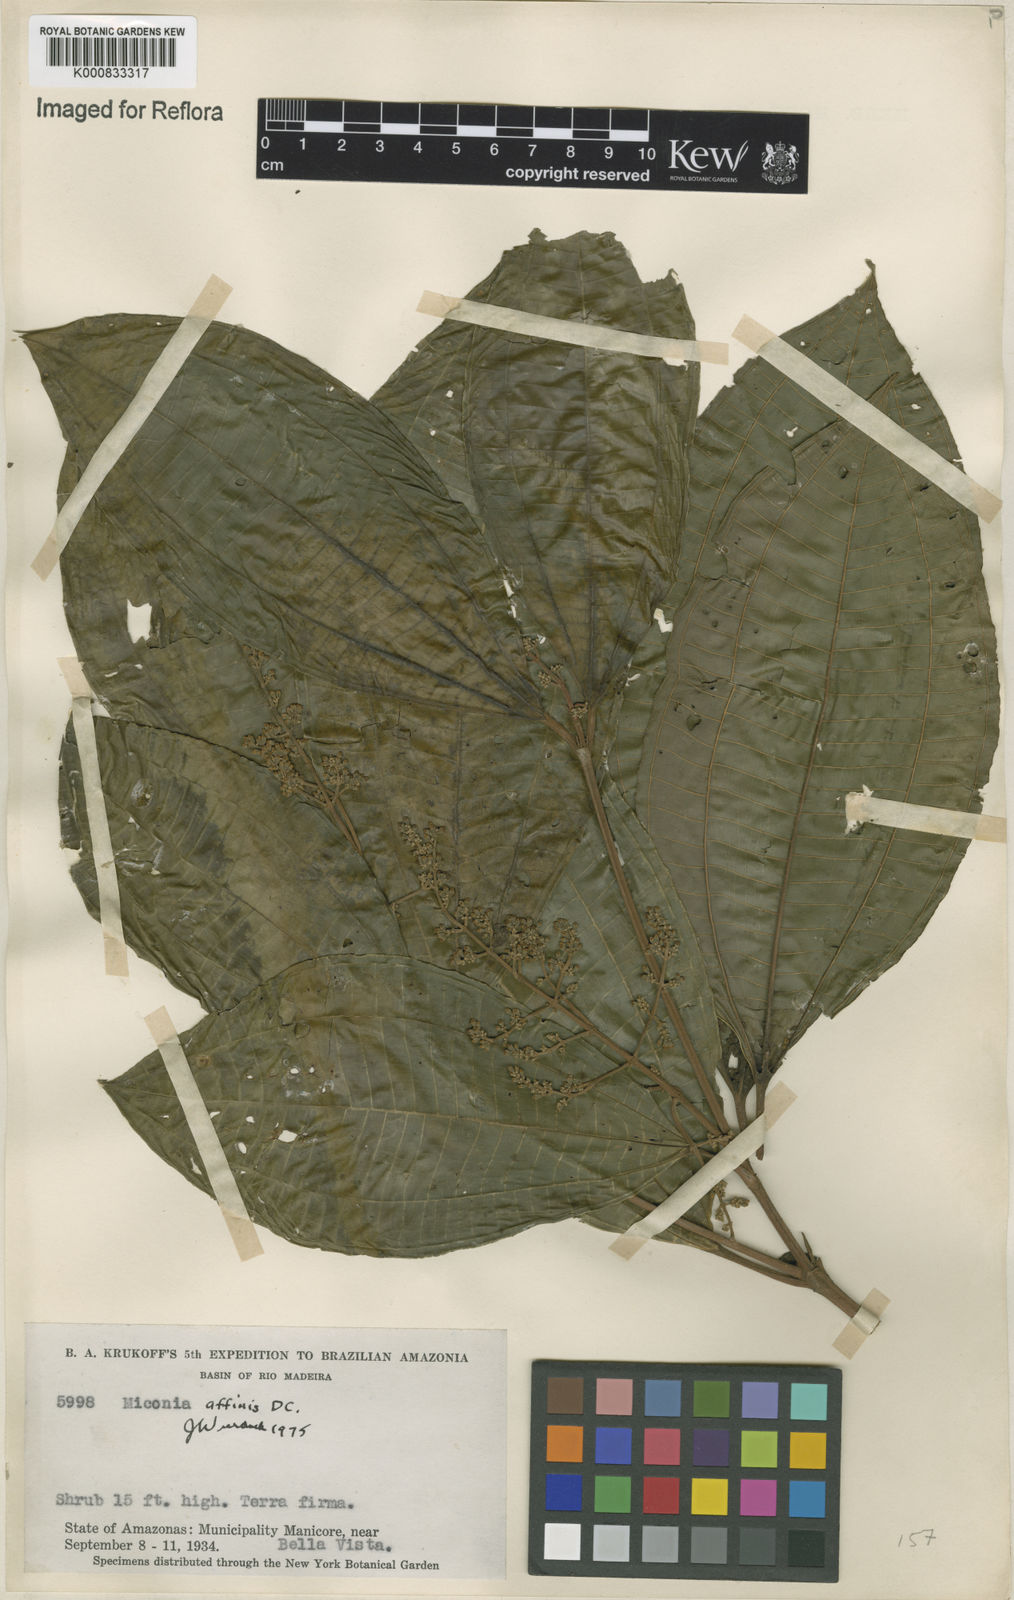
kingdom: Plantae
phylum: Tracheophyta
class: Magnoliopsida
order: Myrtales
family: Melastomataceae
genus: Miconia
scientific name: Miconia affinis
